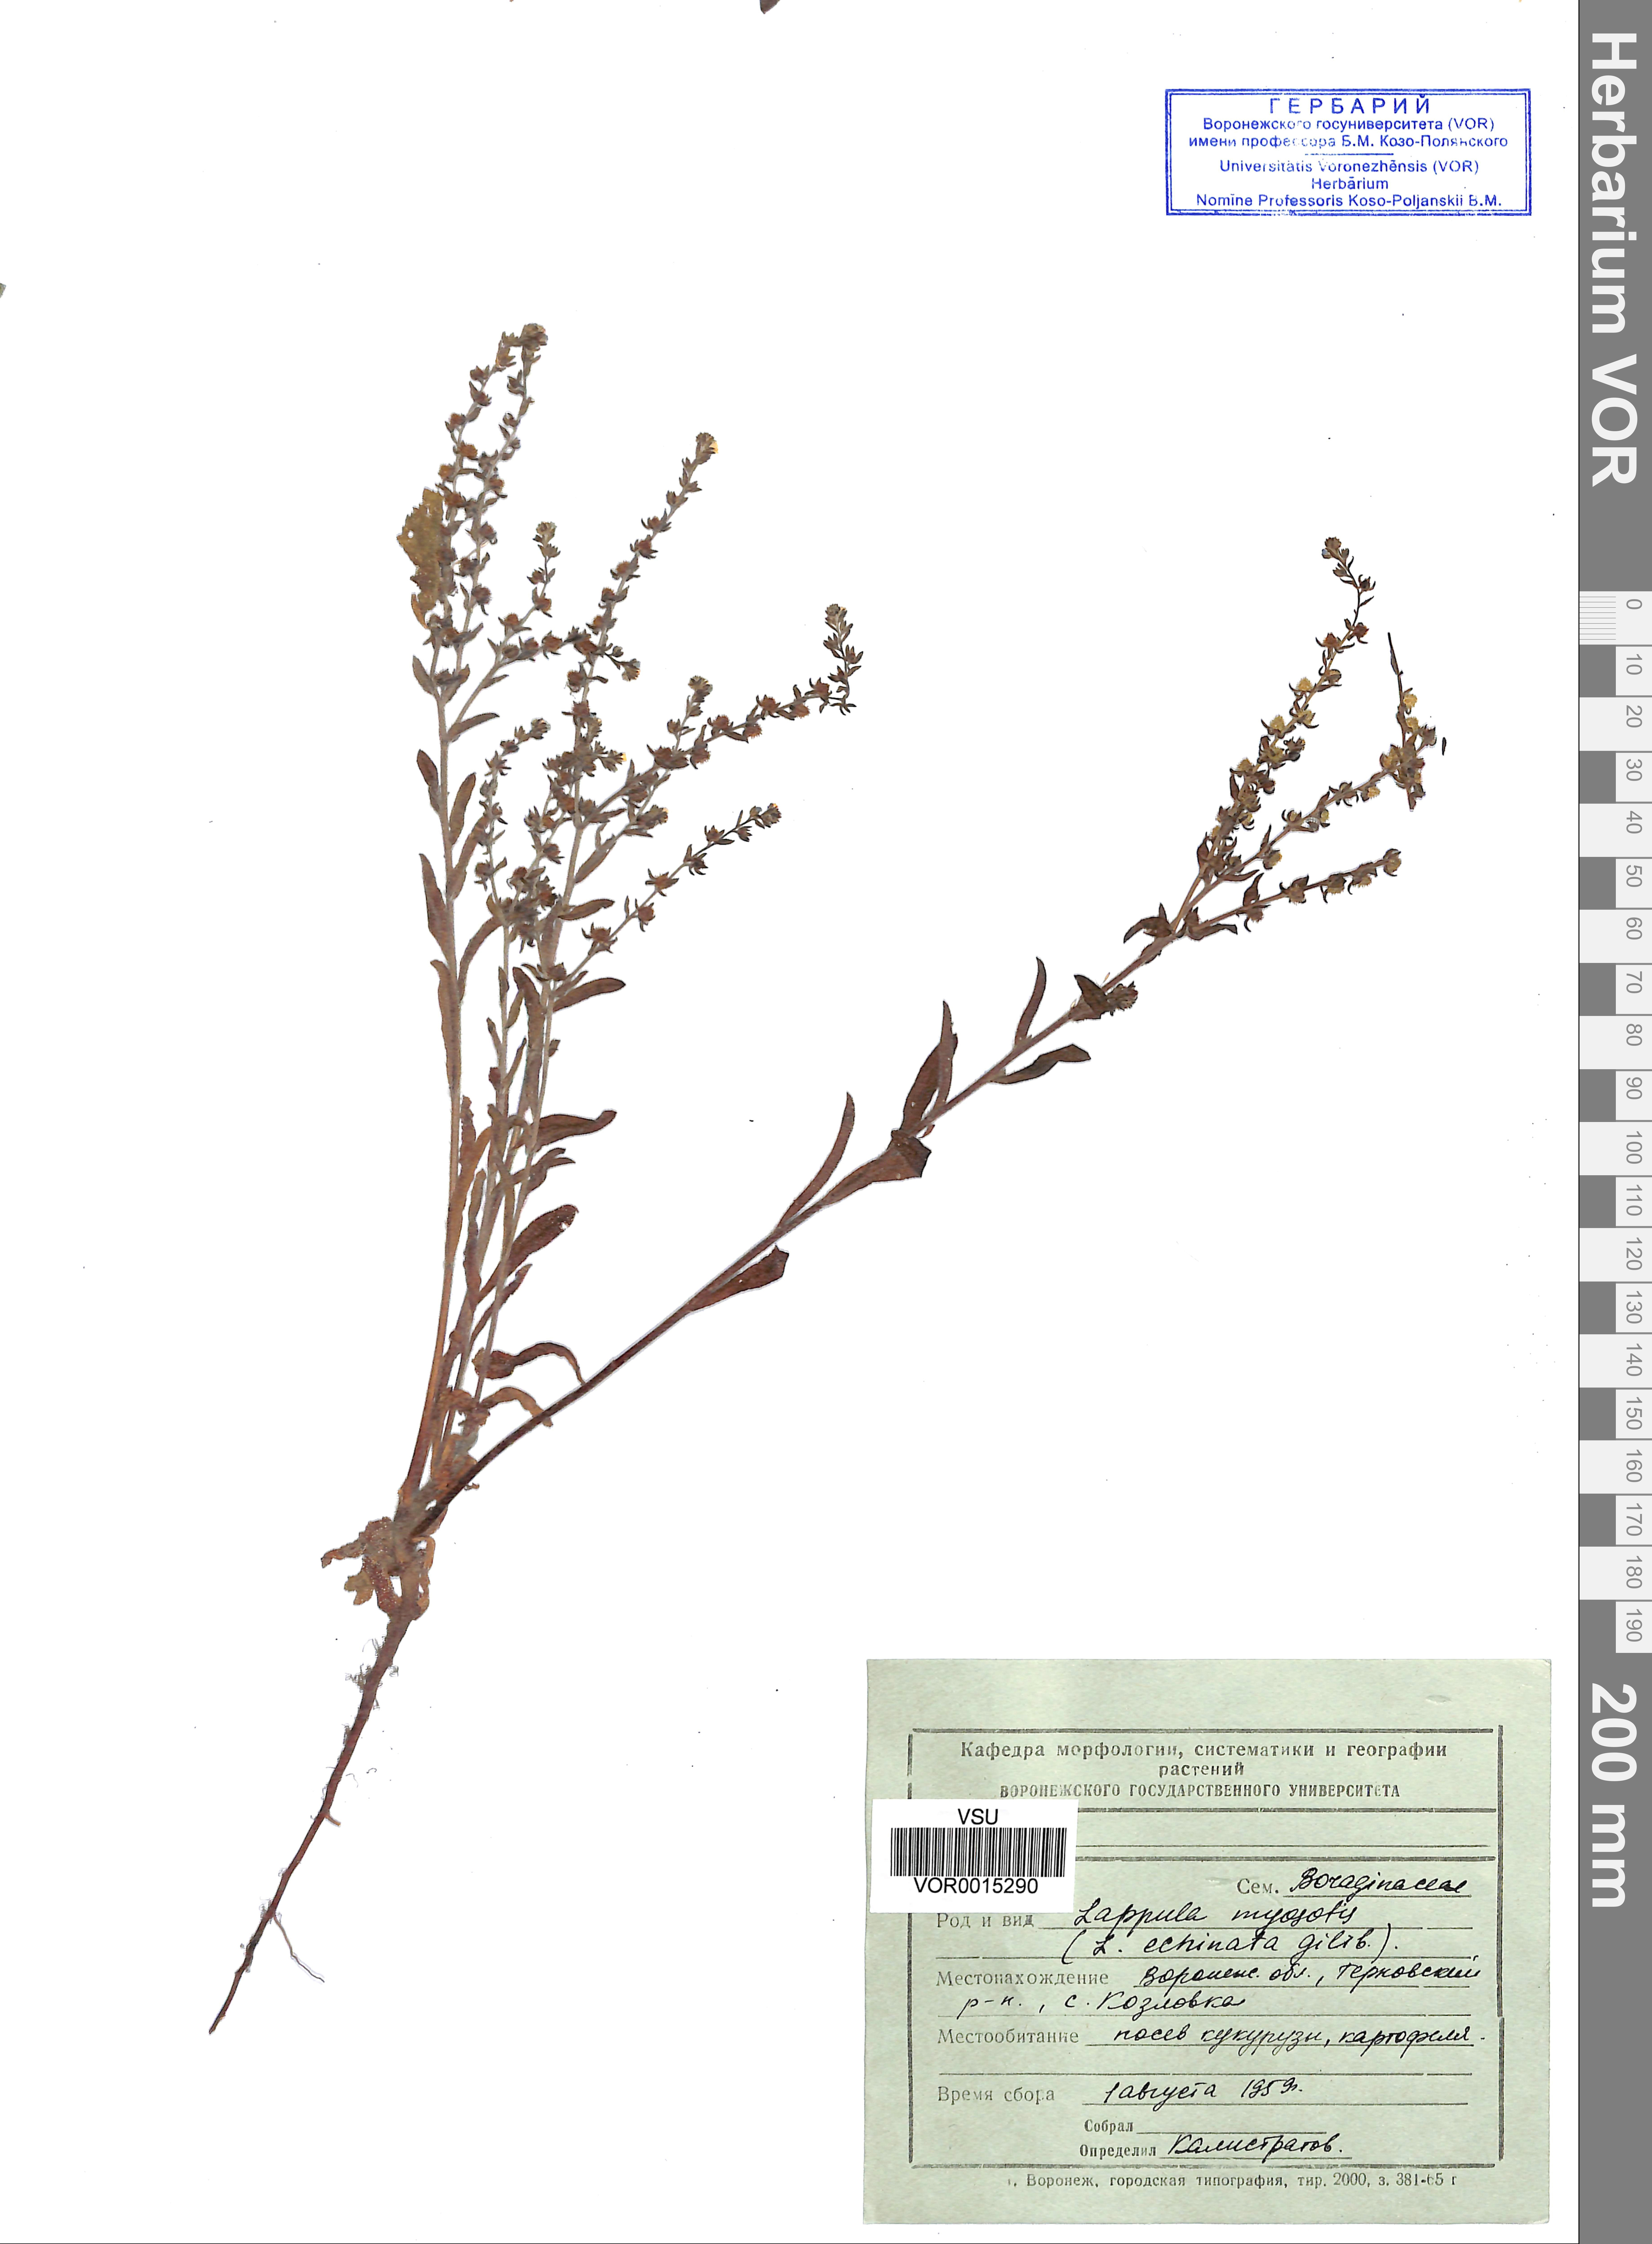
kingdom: Plantae
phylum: Tracheophyta
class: Magnoliopsida
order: Boraginales
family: Boraginaceae
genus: Lappula
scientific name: Lappula squarrosa
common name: European stickseed
